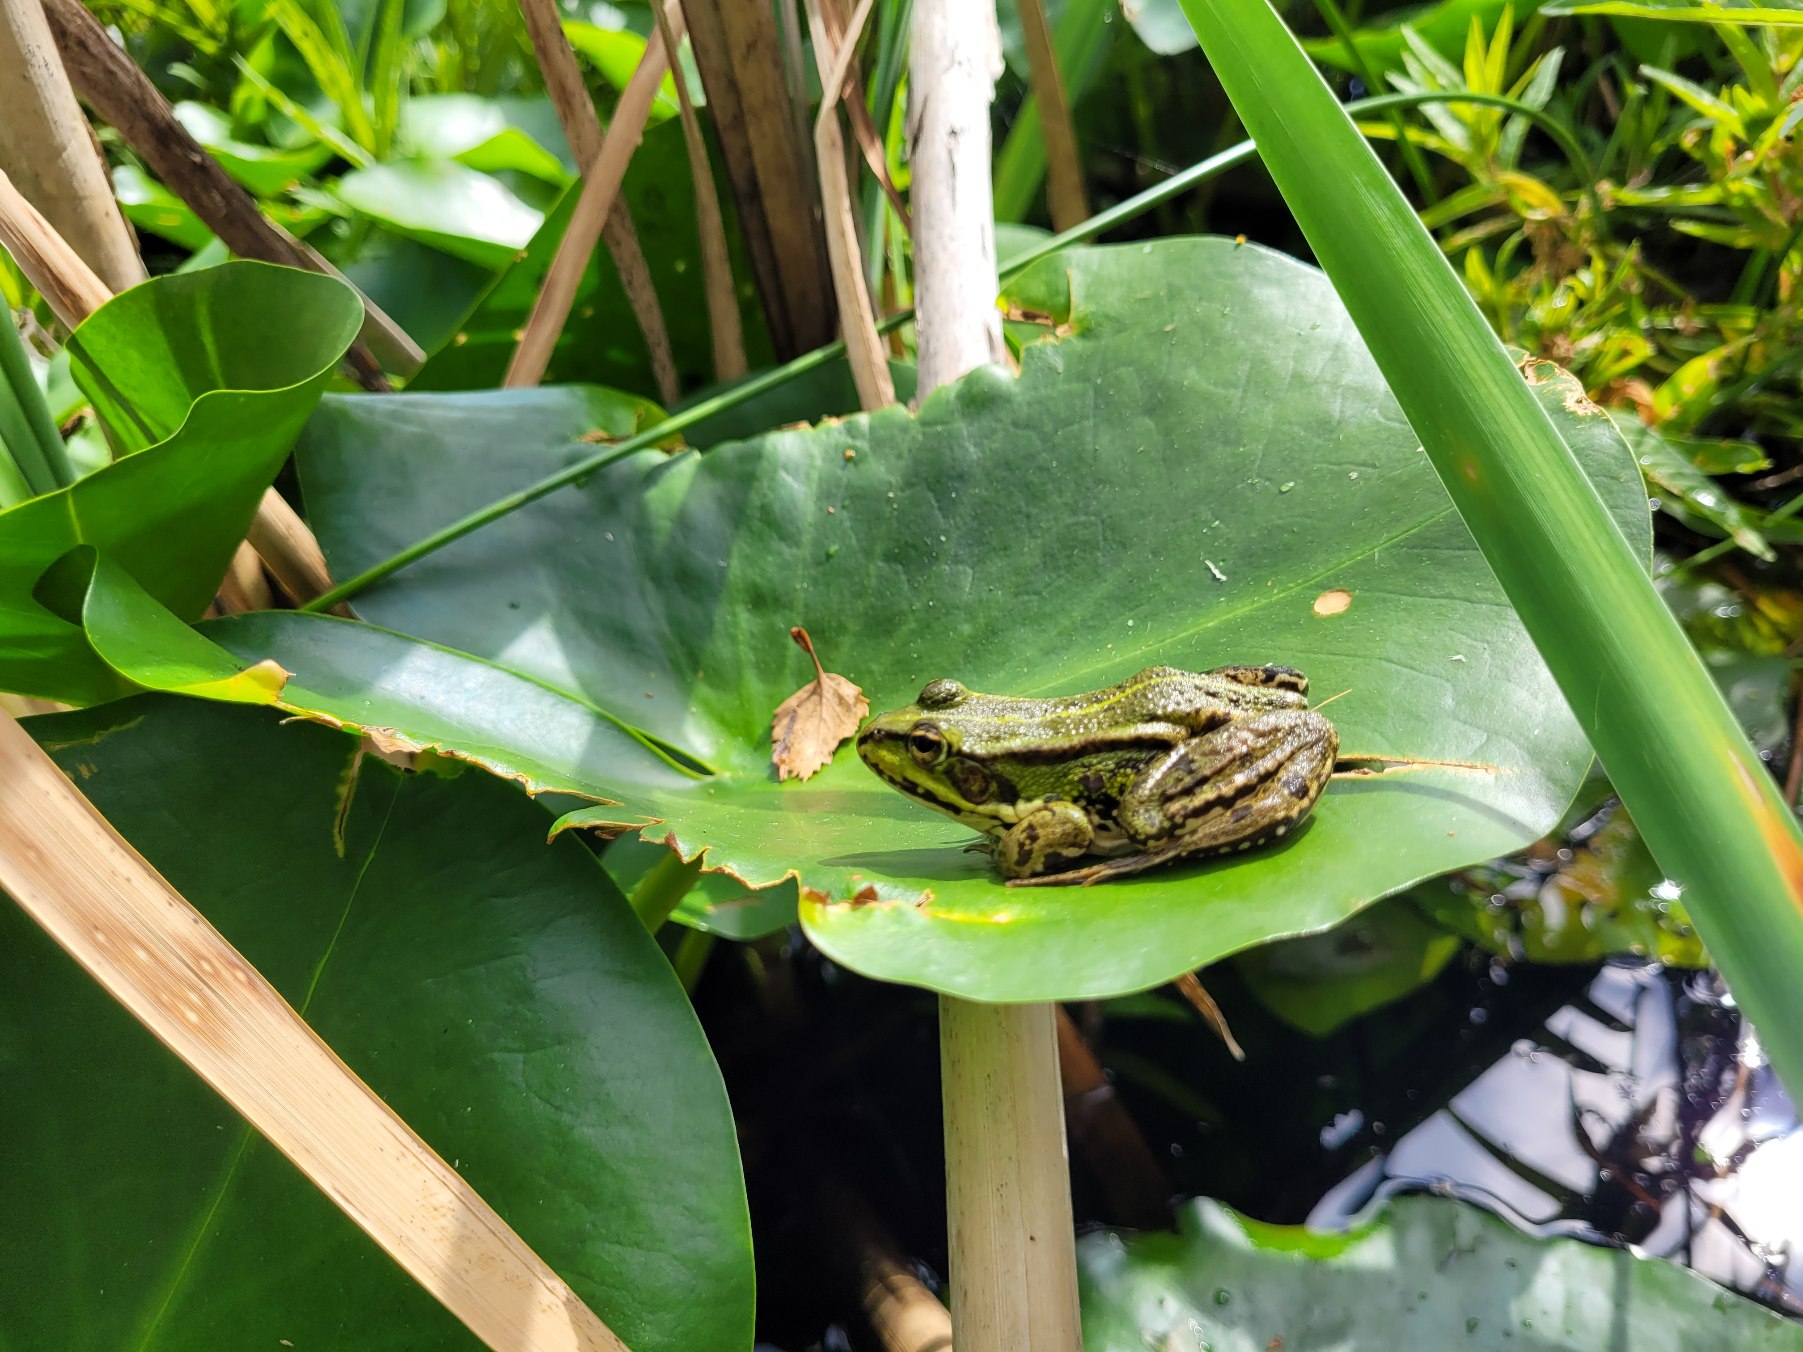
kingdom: Animalia
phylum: Chordata
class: Amphibia
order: Anura
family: Ranidae
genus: Pelophylax
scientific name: Pelophylax lessonae
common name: Grøn frø
